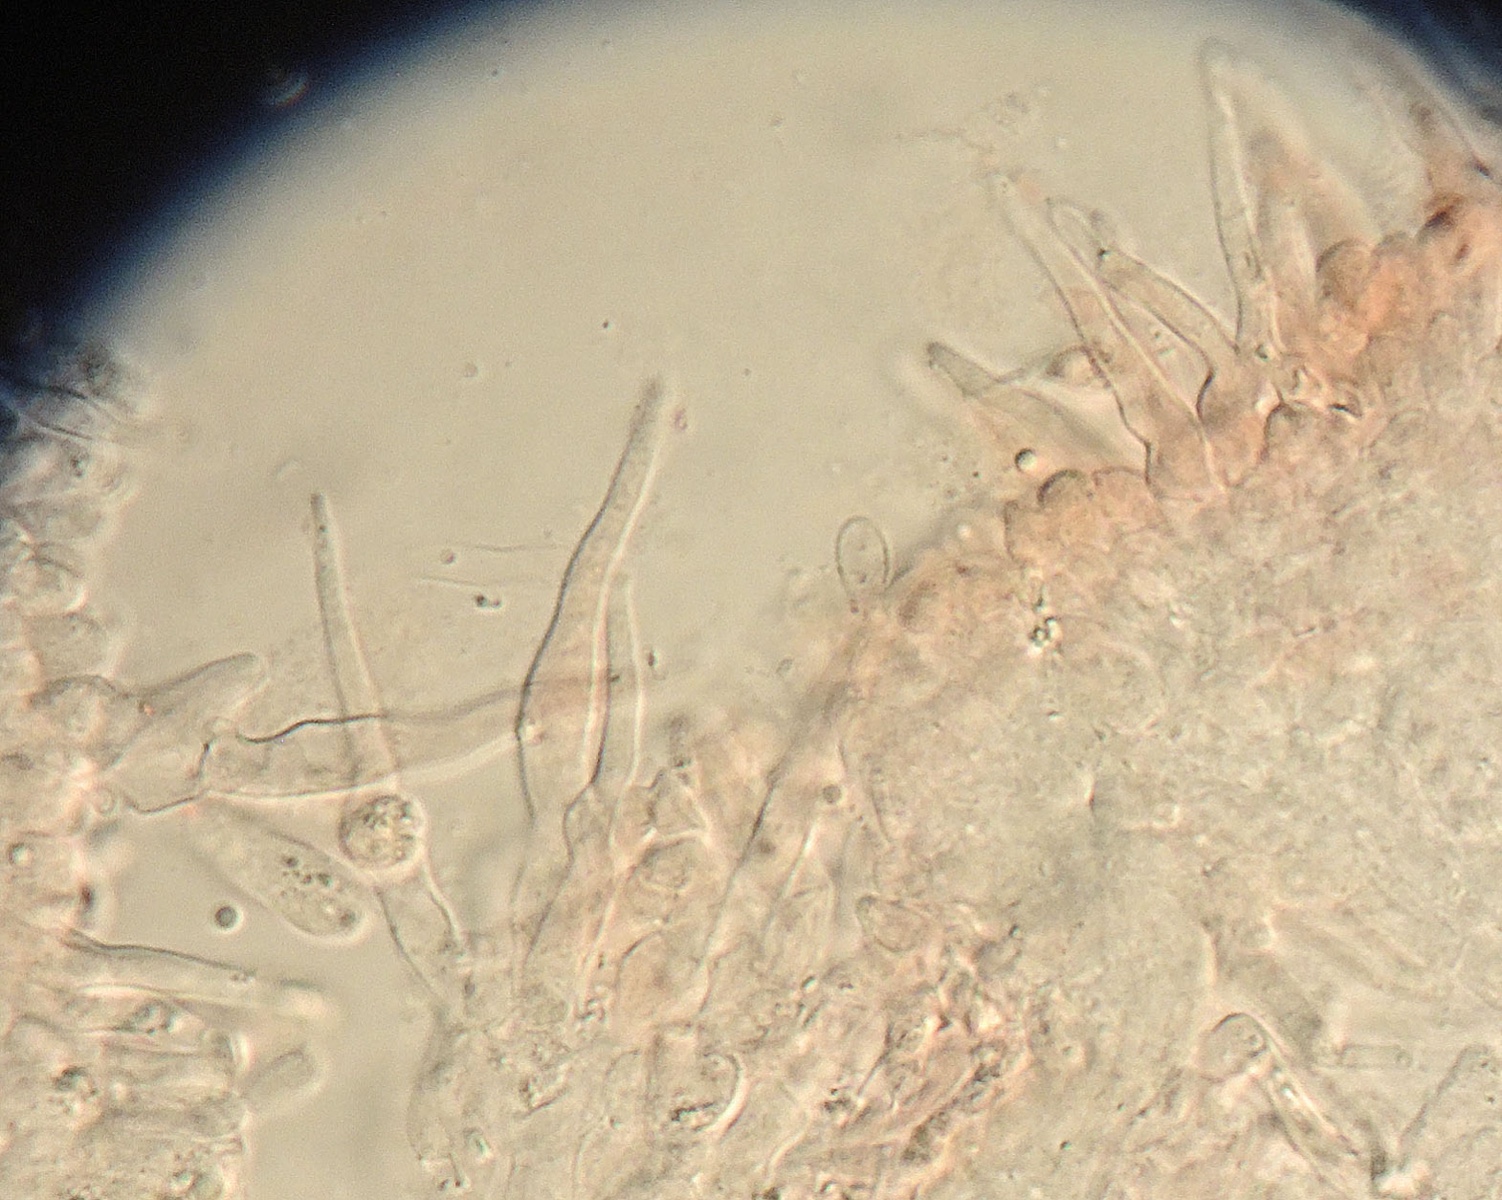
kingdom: Fungi
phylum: Basidiomycota
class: Agaricomycetes
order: Agaricales
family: Mycenaceae
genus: Hemimycena
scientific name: Hemimycena
